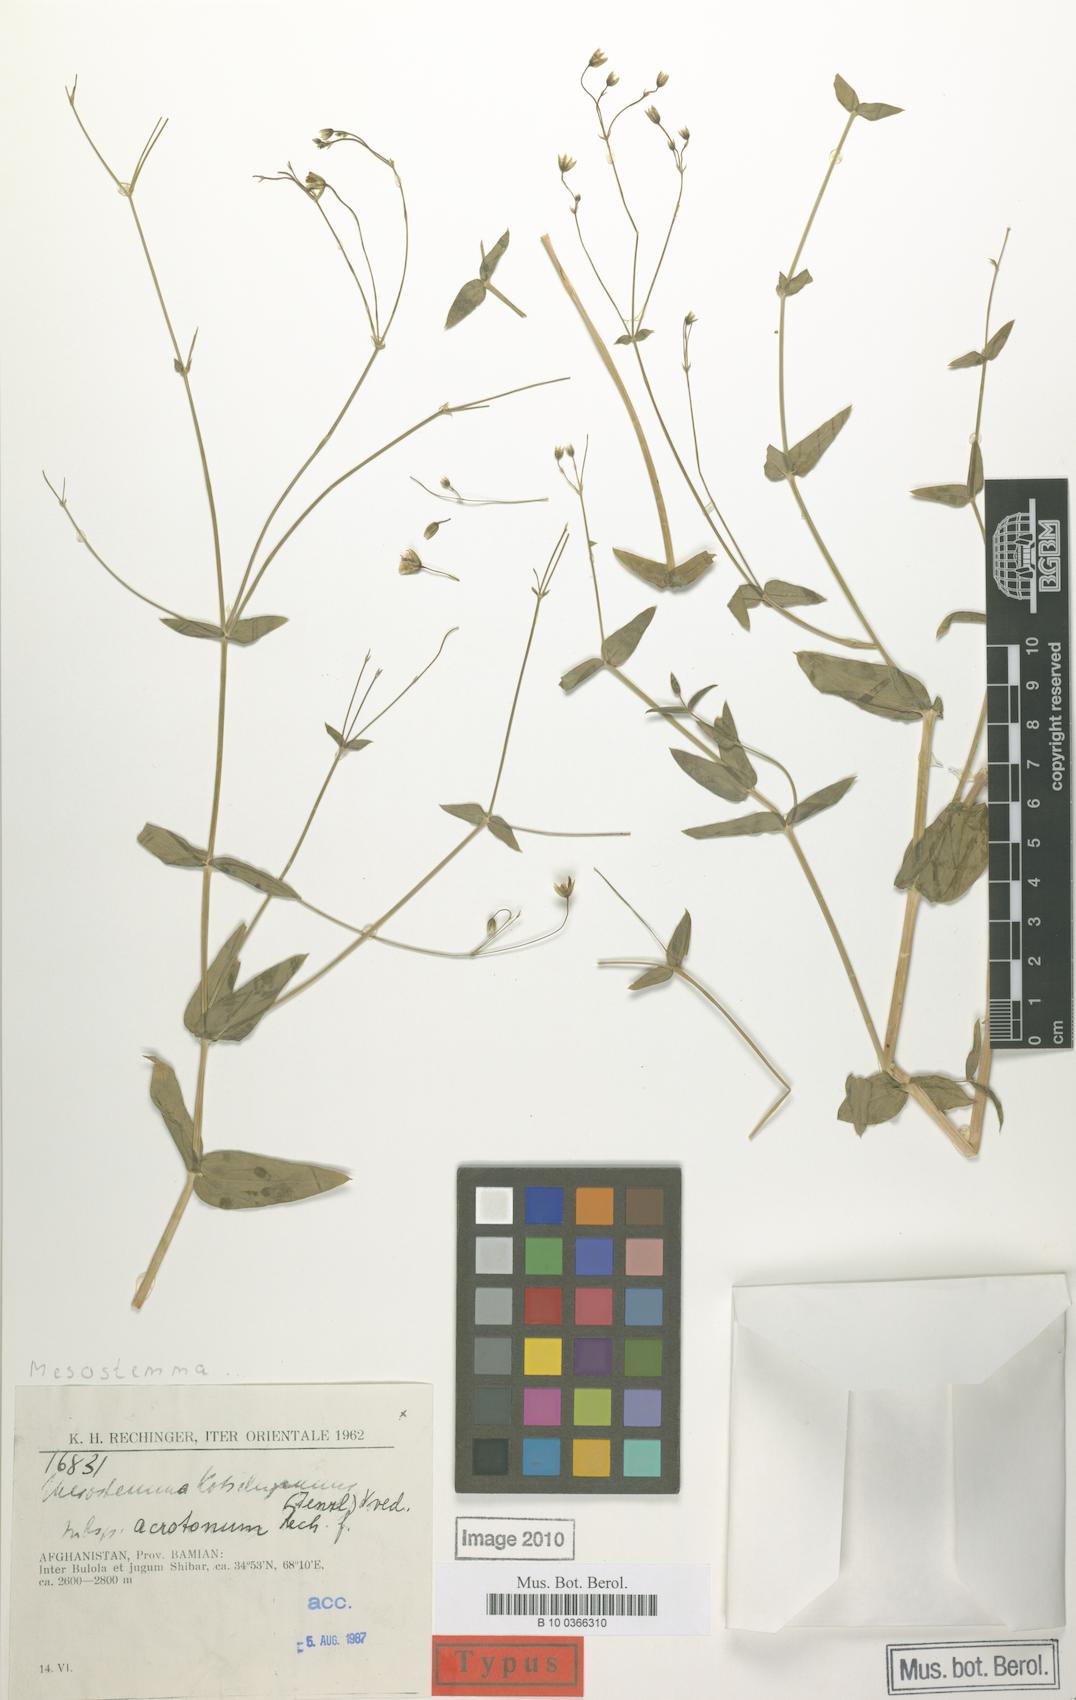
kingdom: Plantae
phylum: Tracheophyta
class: Magnoliopsida
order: Caryophyllales
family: Caryophyllaceae
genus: Mesostemma
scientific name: Mesostemma kotschyanum
